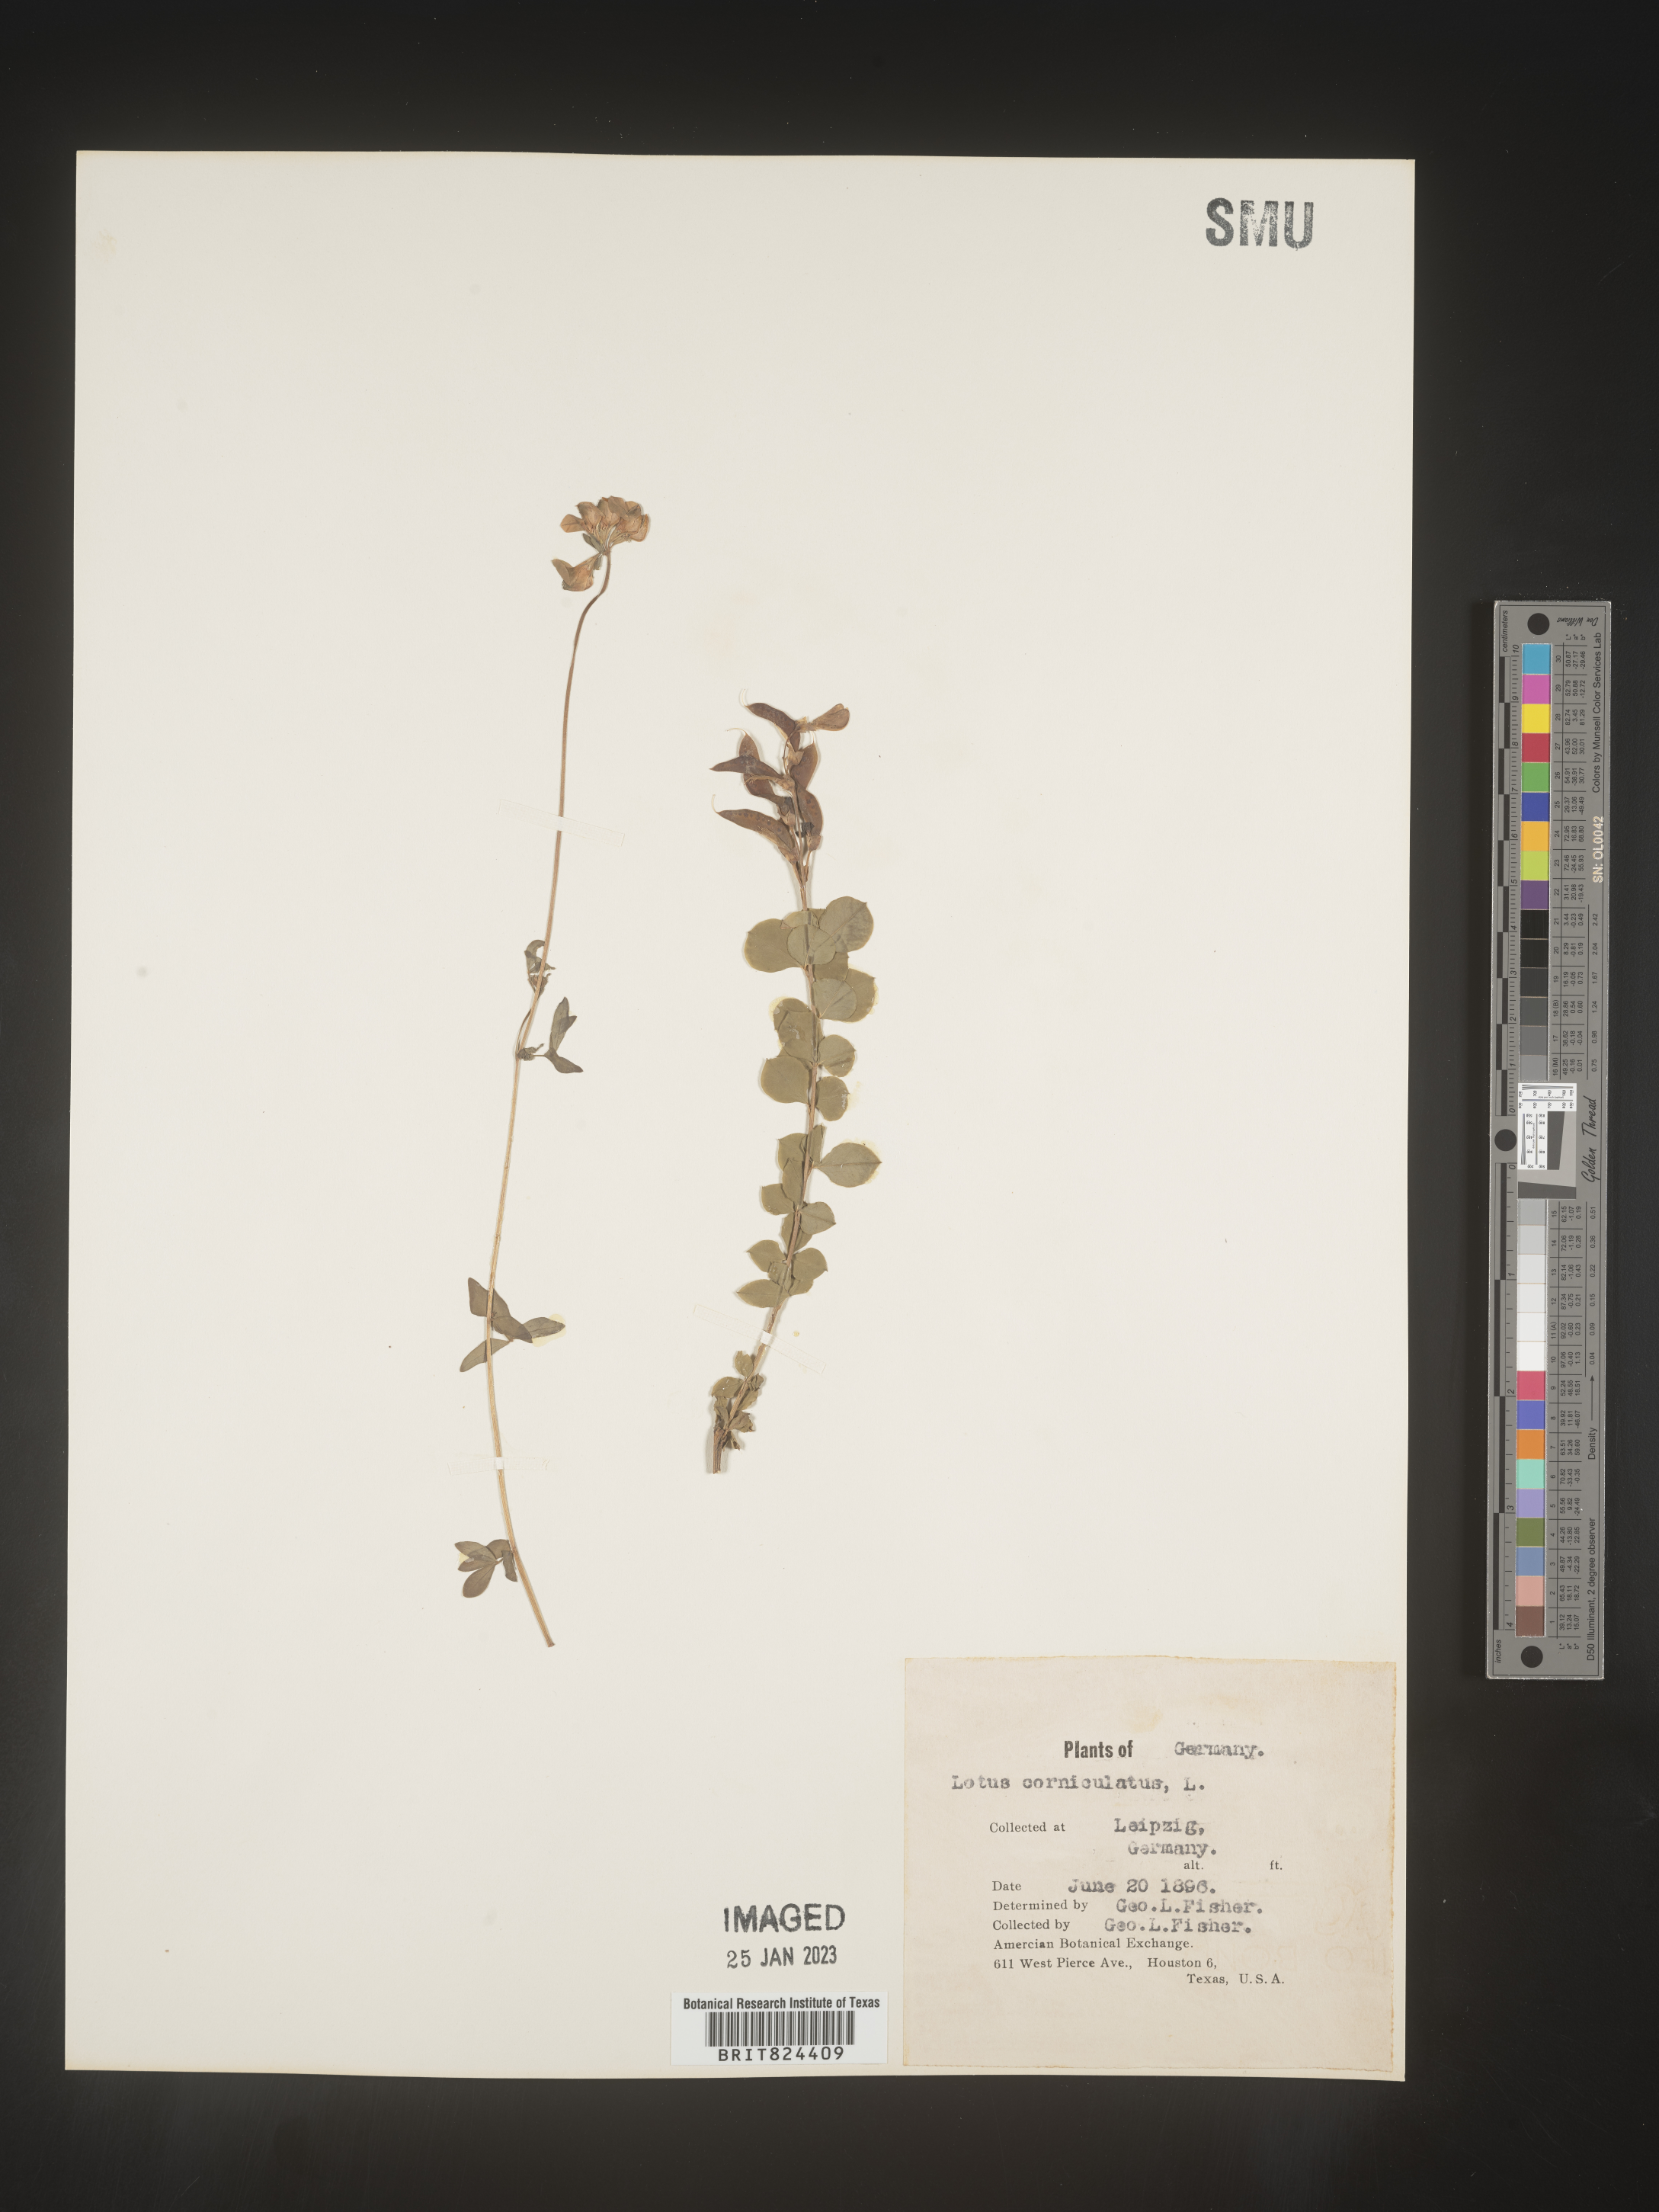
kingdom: Plantae
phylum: Tracheophyta
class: Magnoliopsida
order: Fabales
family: Fabaceae
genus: Lotus
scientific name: Lotus
